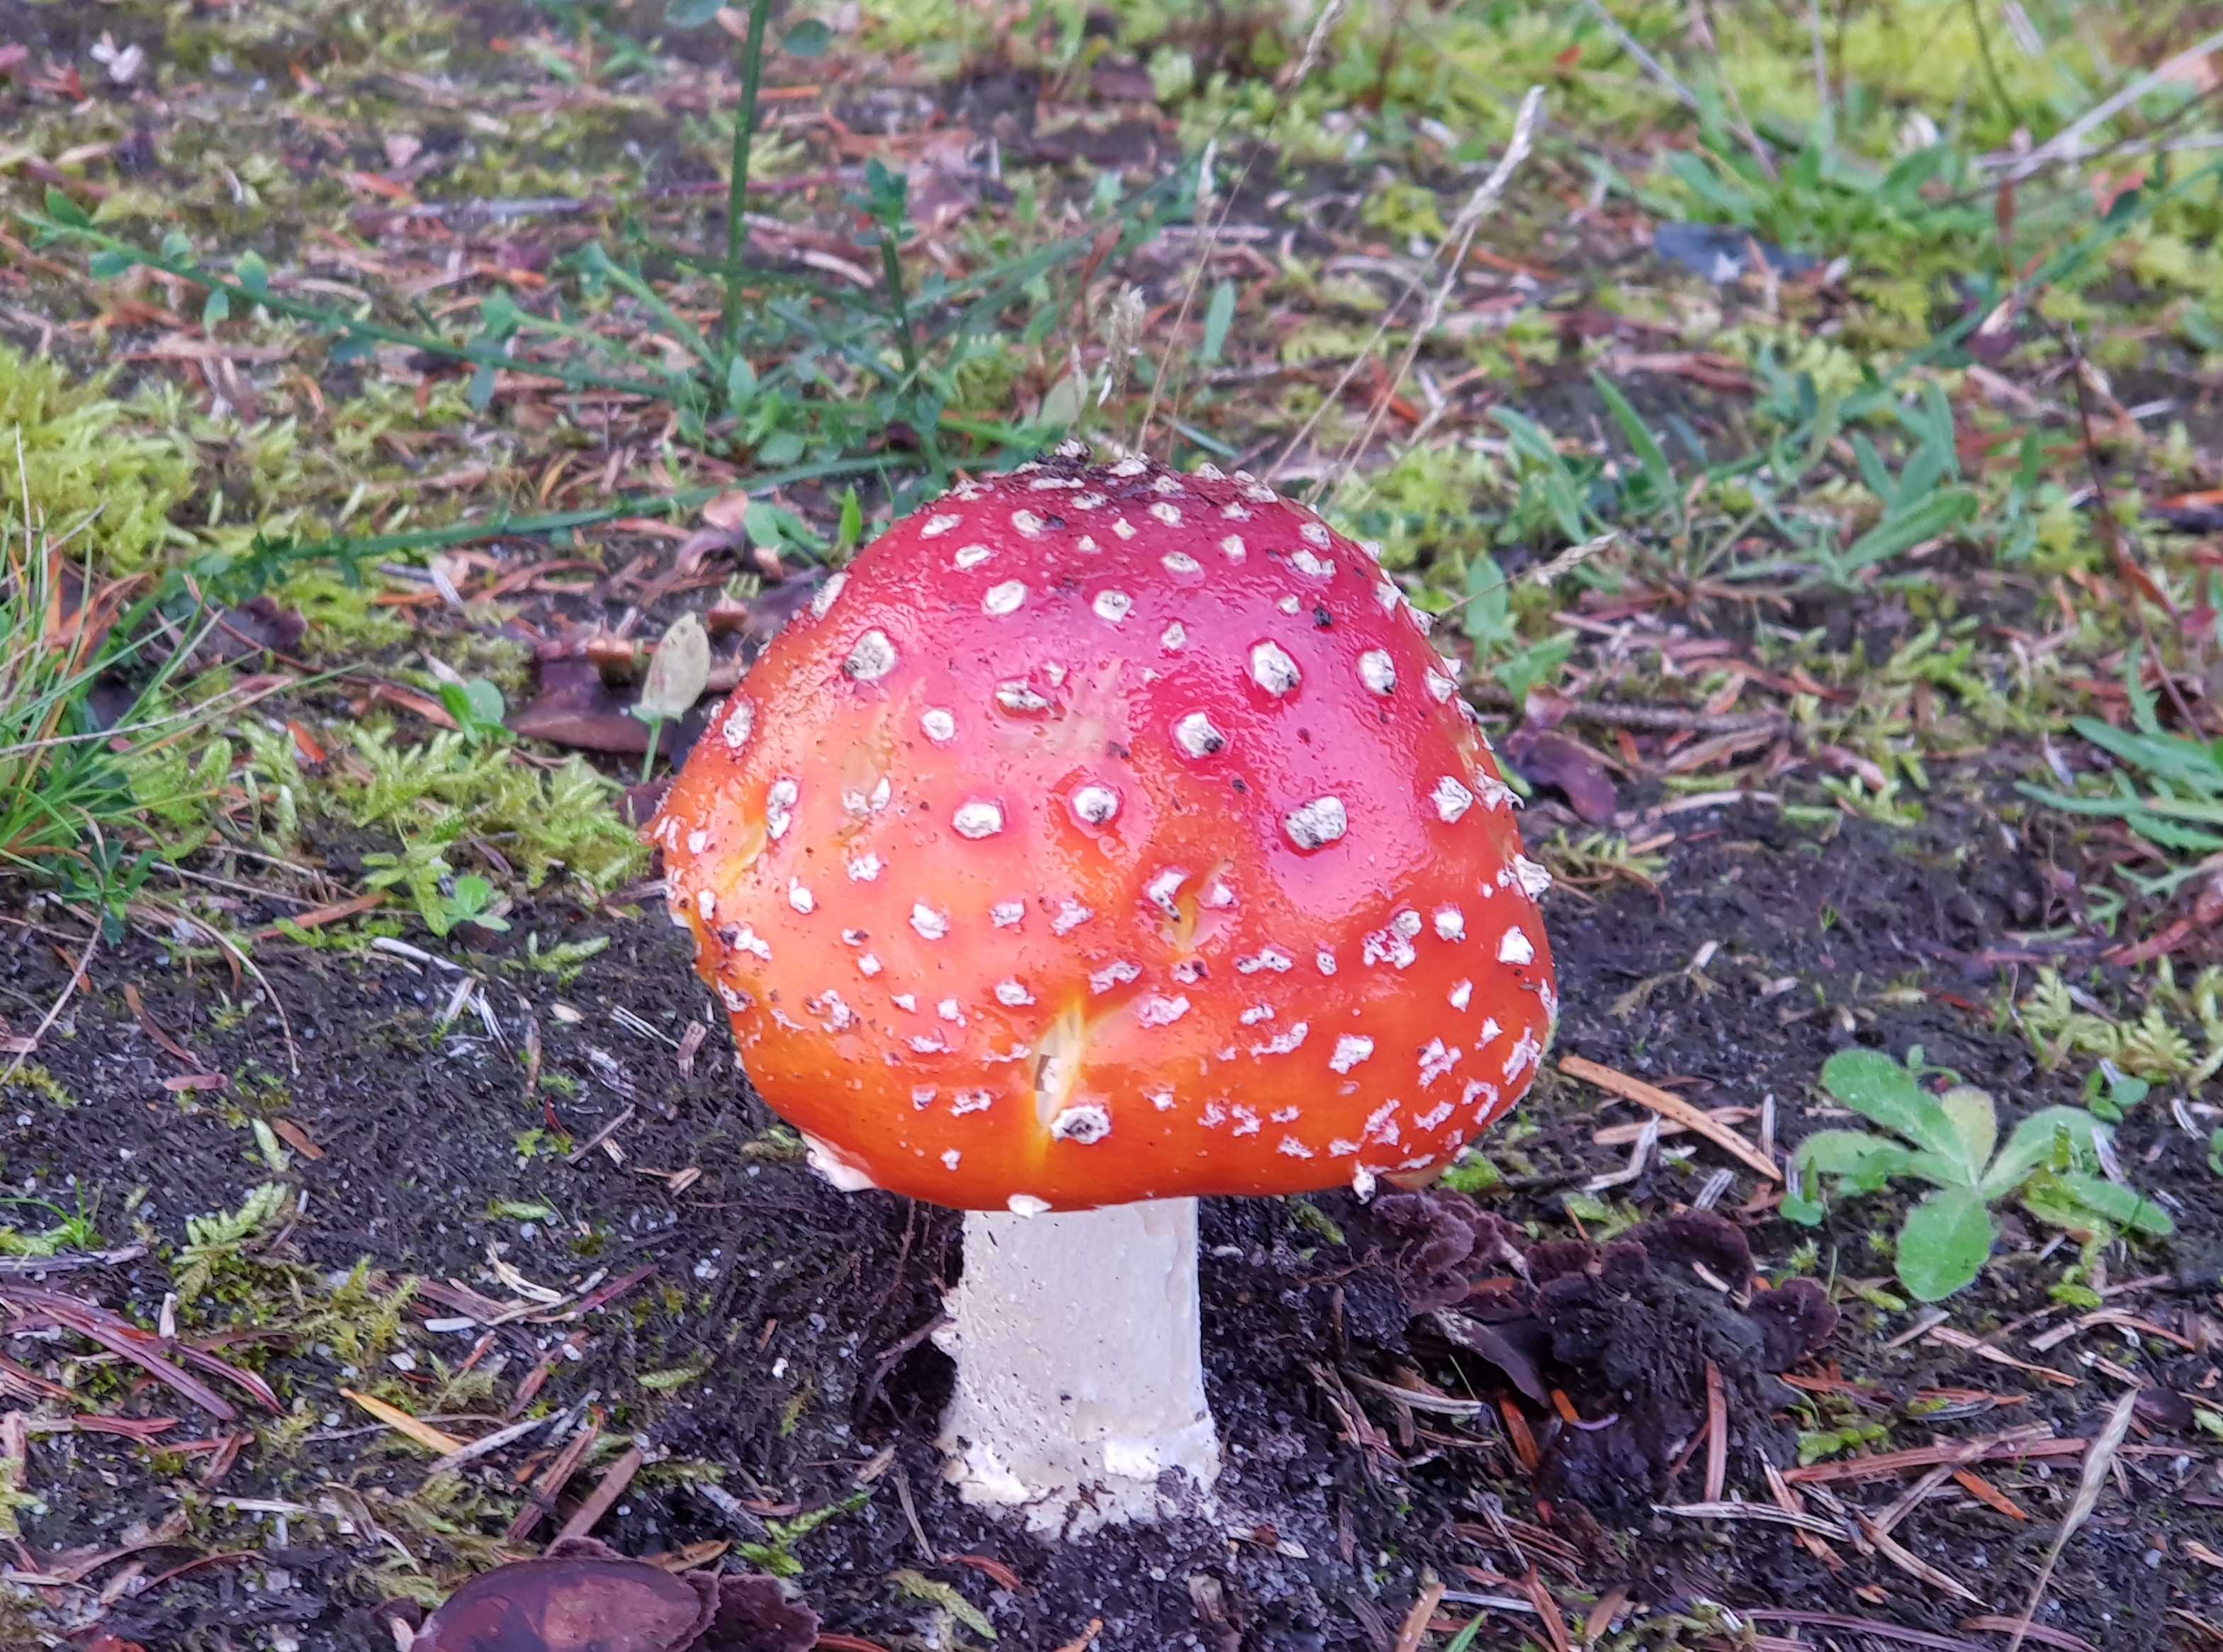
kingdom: Fungi
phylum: Basidiomycota
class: Agaricomycetes
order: Agaricales
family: Amanitaceae
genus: Amanita
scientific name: Amanita muscaria
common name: rød fluesvamp
